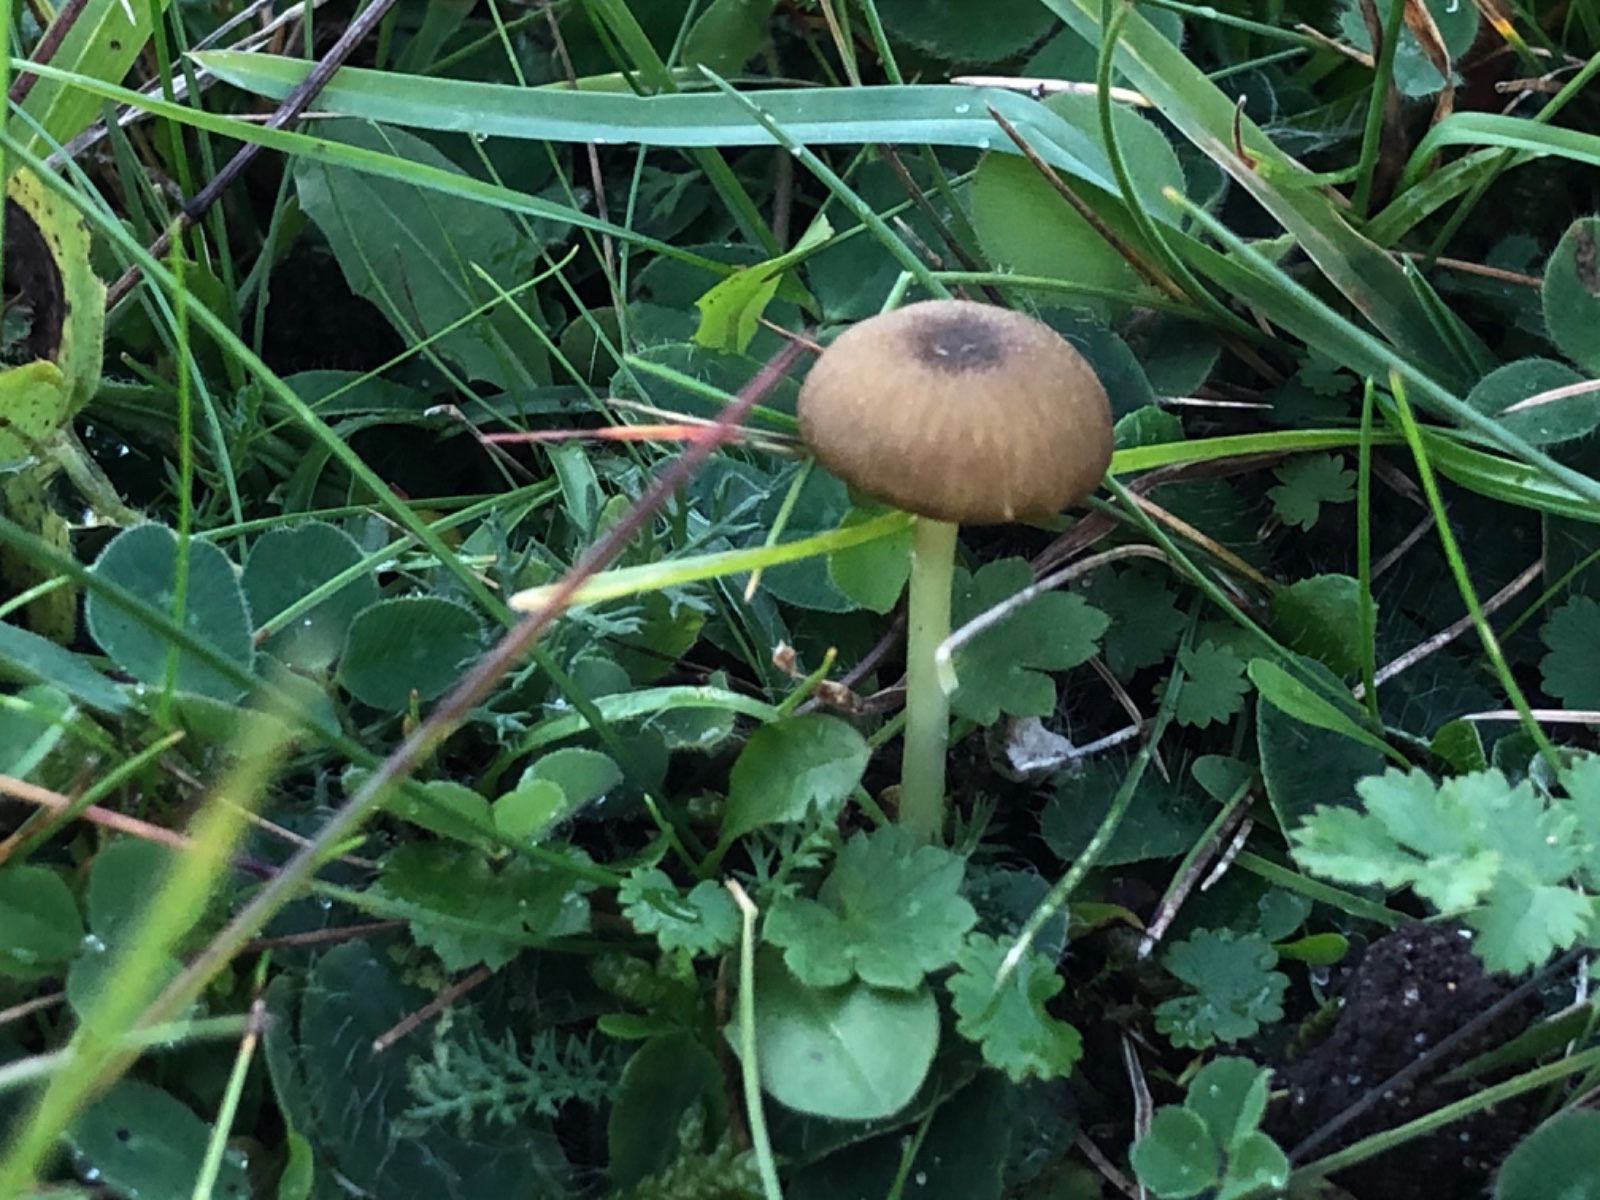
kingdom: Fungi
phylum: Basidiomycota
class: Agaricomycetes
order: Agaricales
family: Entolomataceae
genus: Entoloma
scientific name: Entoloma incanum
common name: grøngul rødblad
